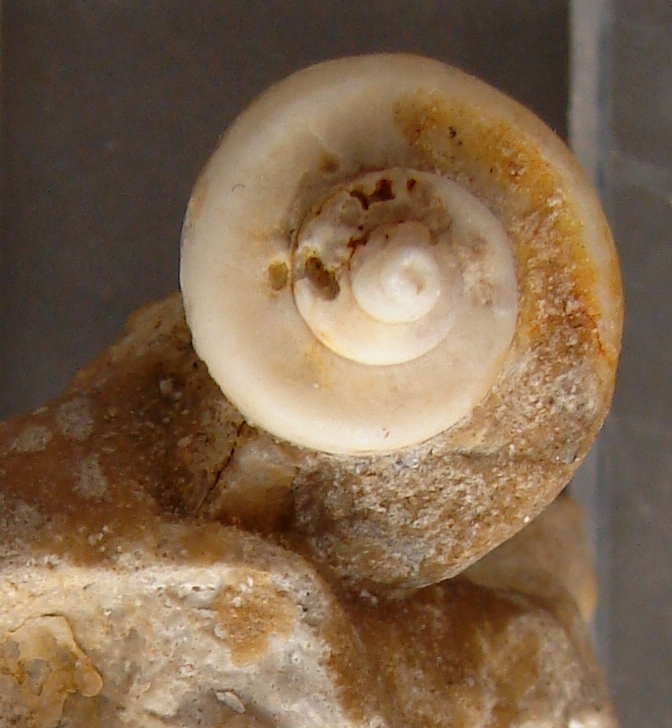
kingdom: Animalia
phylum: Mollusca
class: Gastropoda
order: Architaenioglossa
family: Ampullariidae
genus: Pomacea
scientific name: Pomacea scalaris
